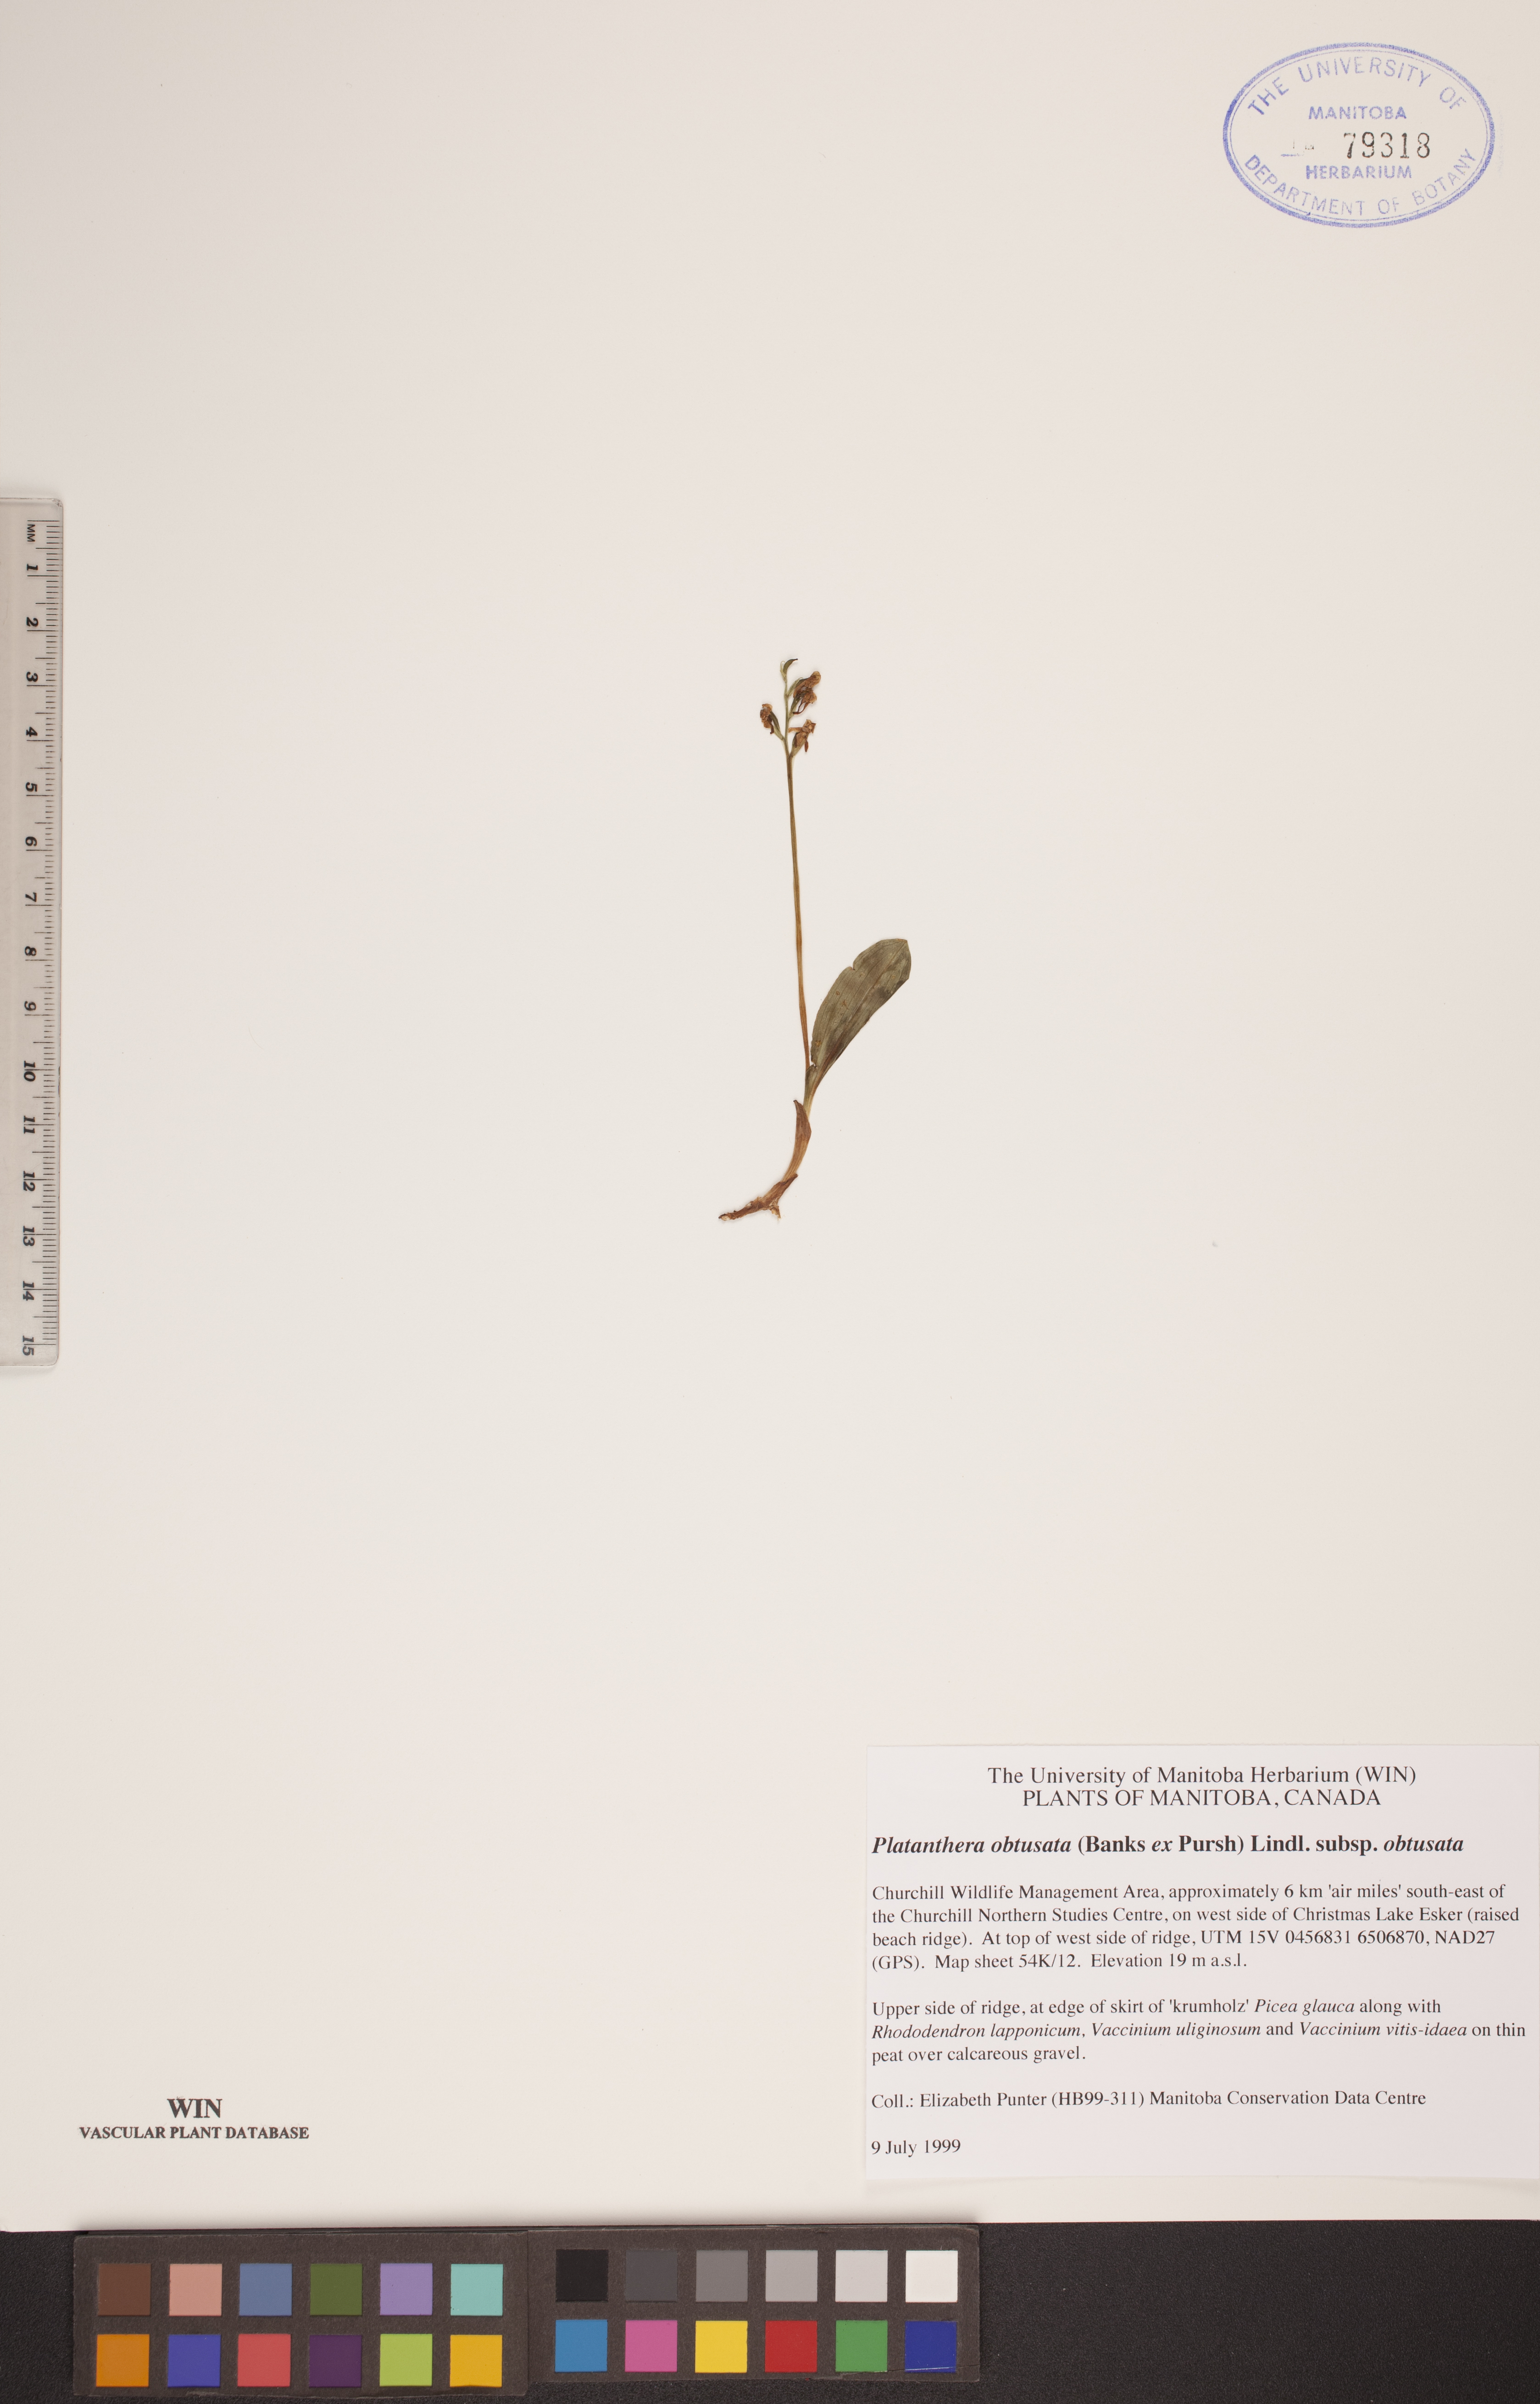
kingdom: Plantae
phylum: Tracheophyta
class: Liliopsida
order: Asparagales
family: Orchidaceae
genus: Platanthera
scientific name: Platanthera obtusata
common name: Blunt bog orchid
